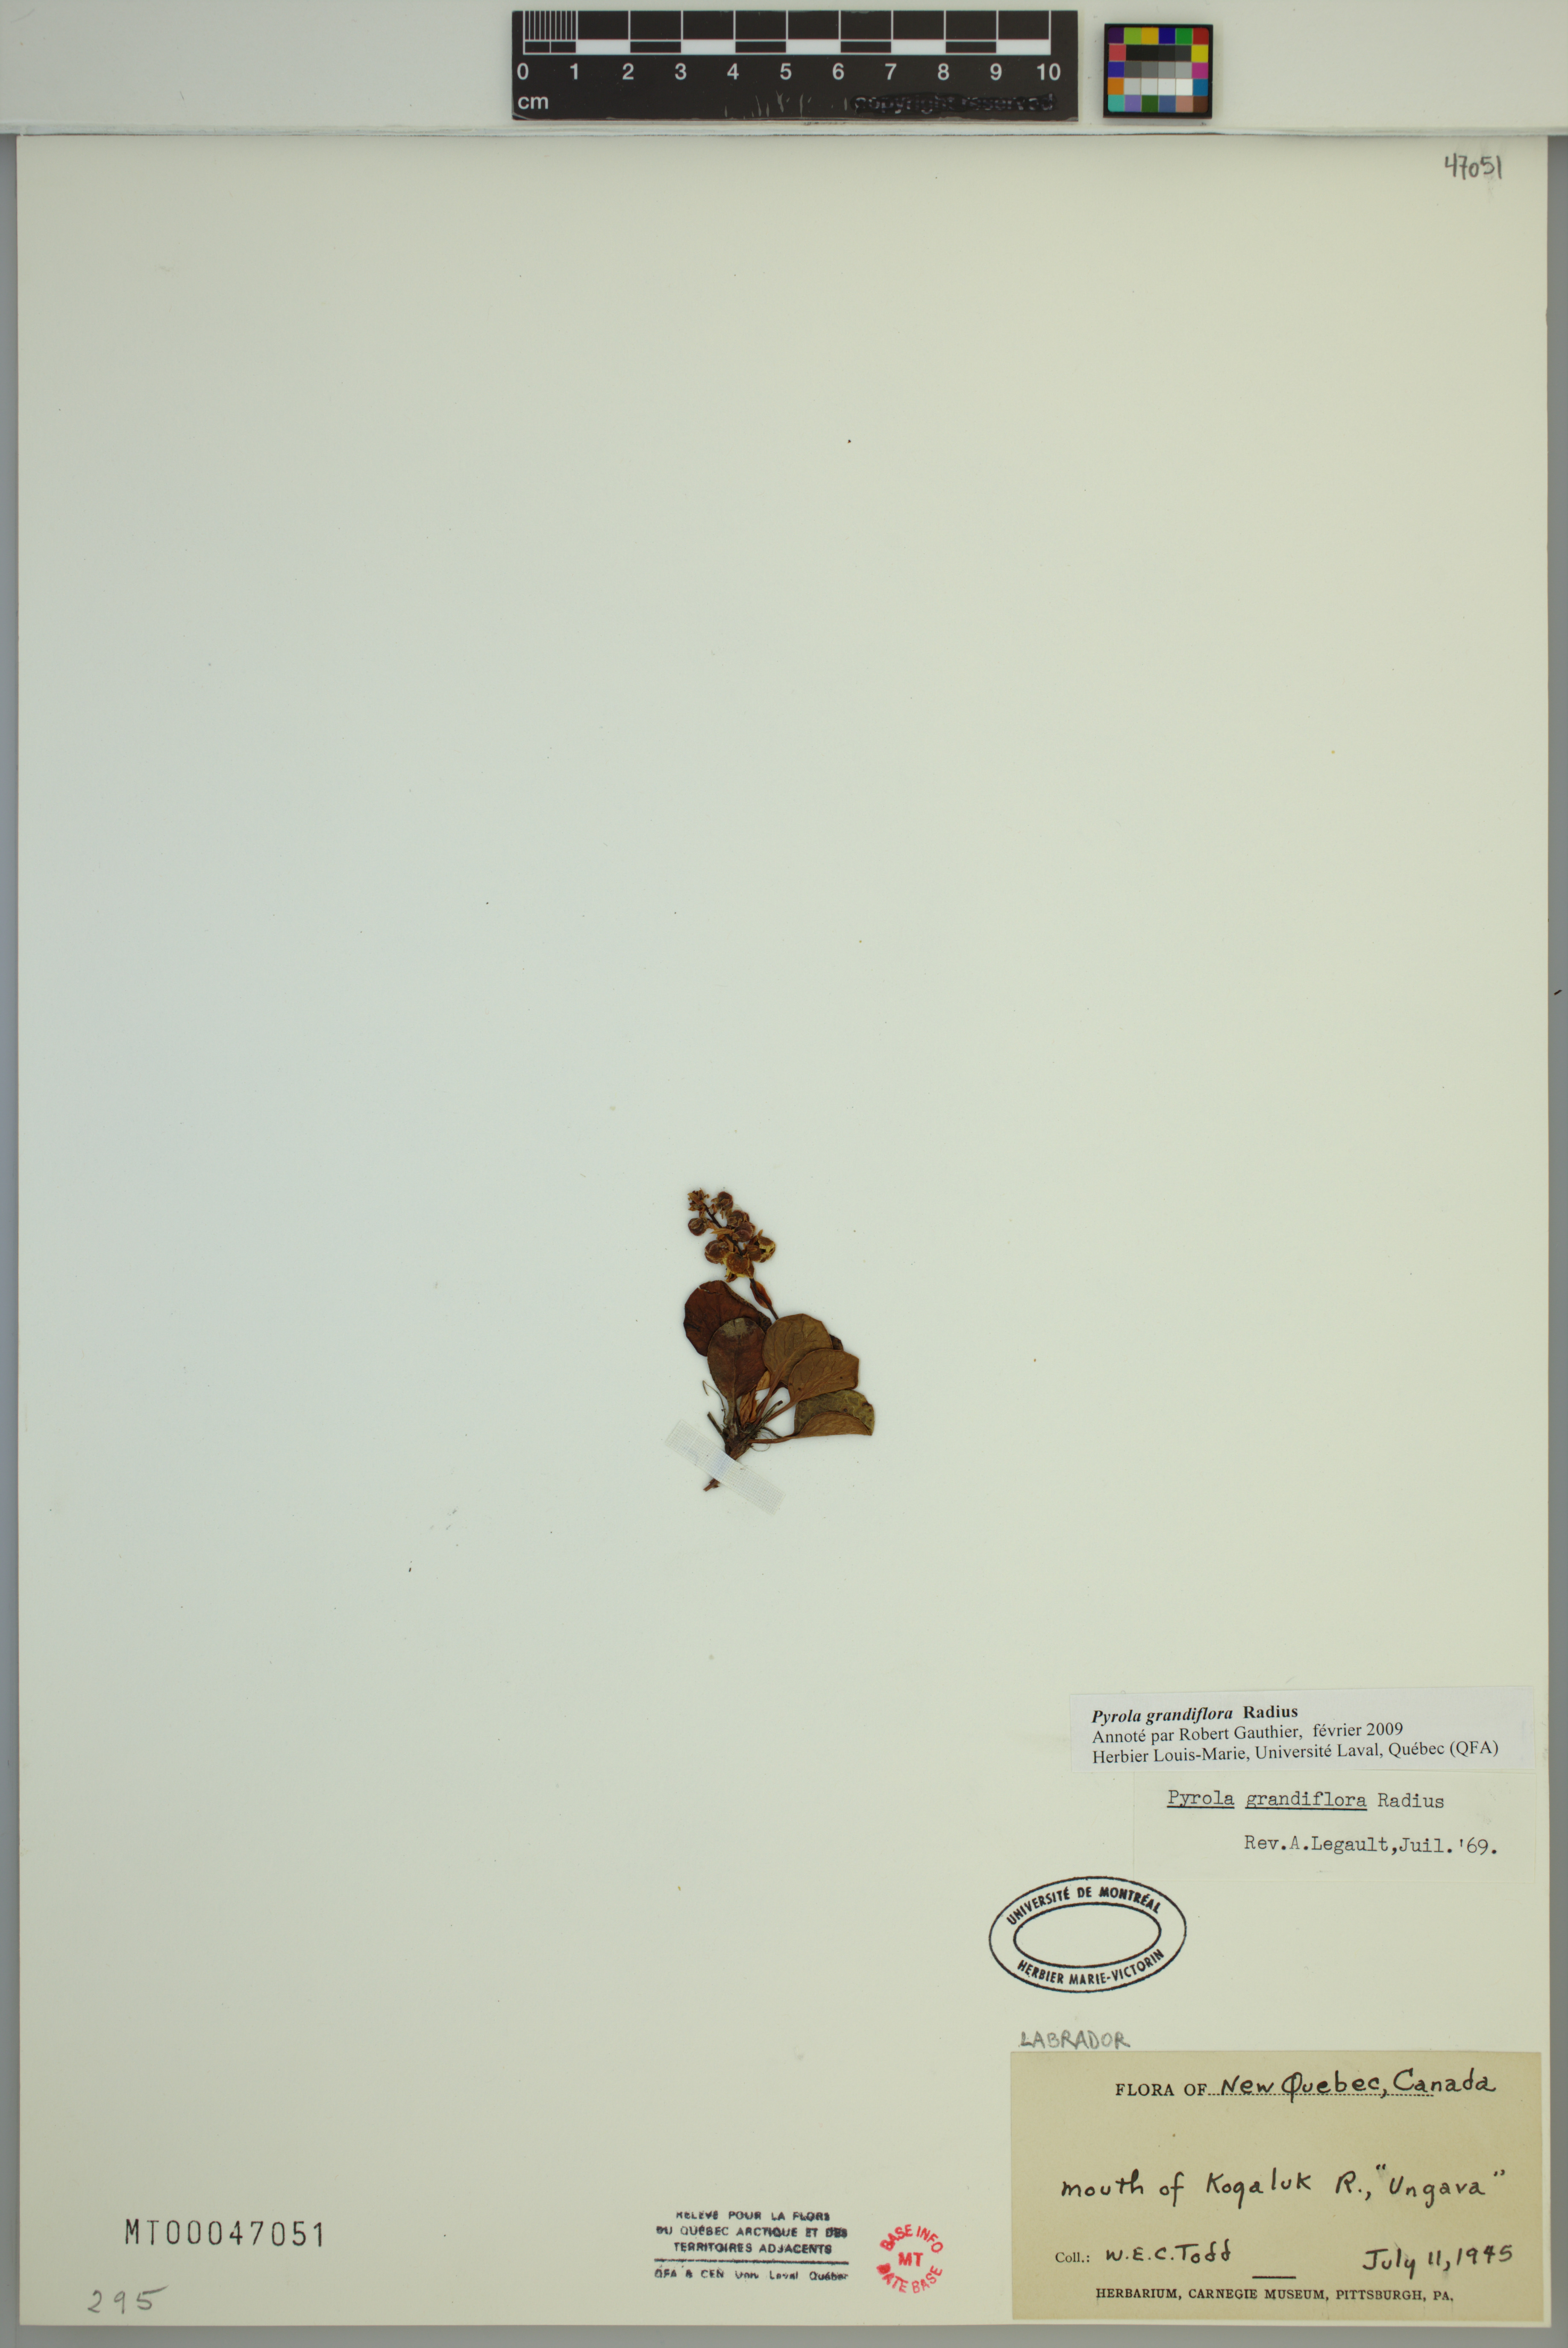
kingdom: Plantae
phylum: Tracheophyta
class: Magnoliopsida
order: Ericales
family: Ericaceae
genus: Pyrola
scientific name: Pyrola grandiflora
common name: Arctic pyrola
